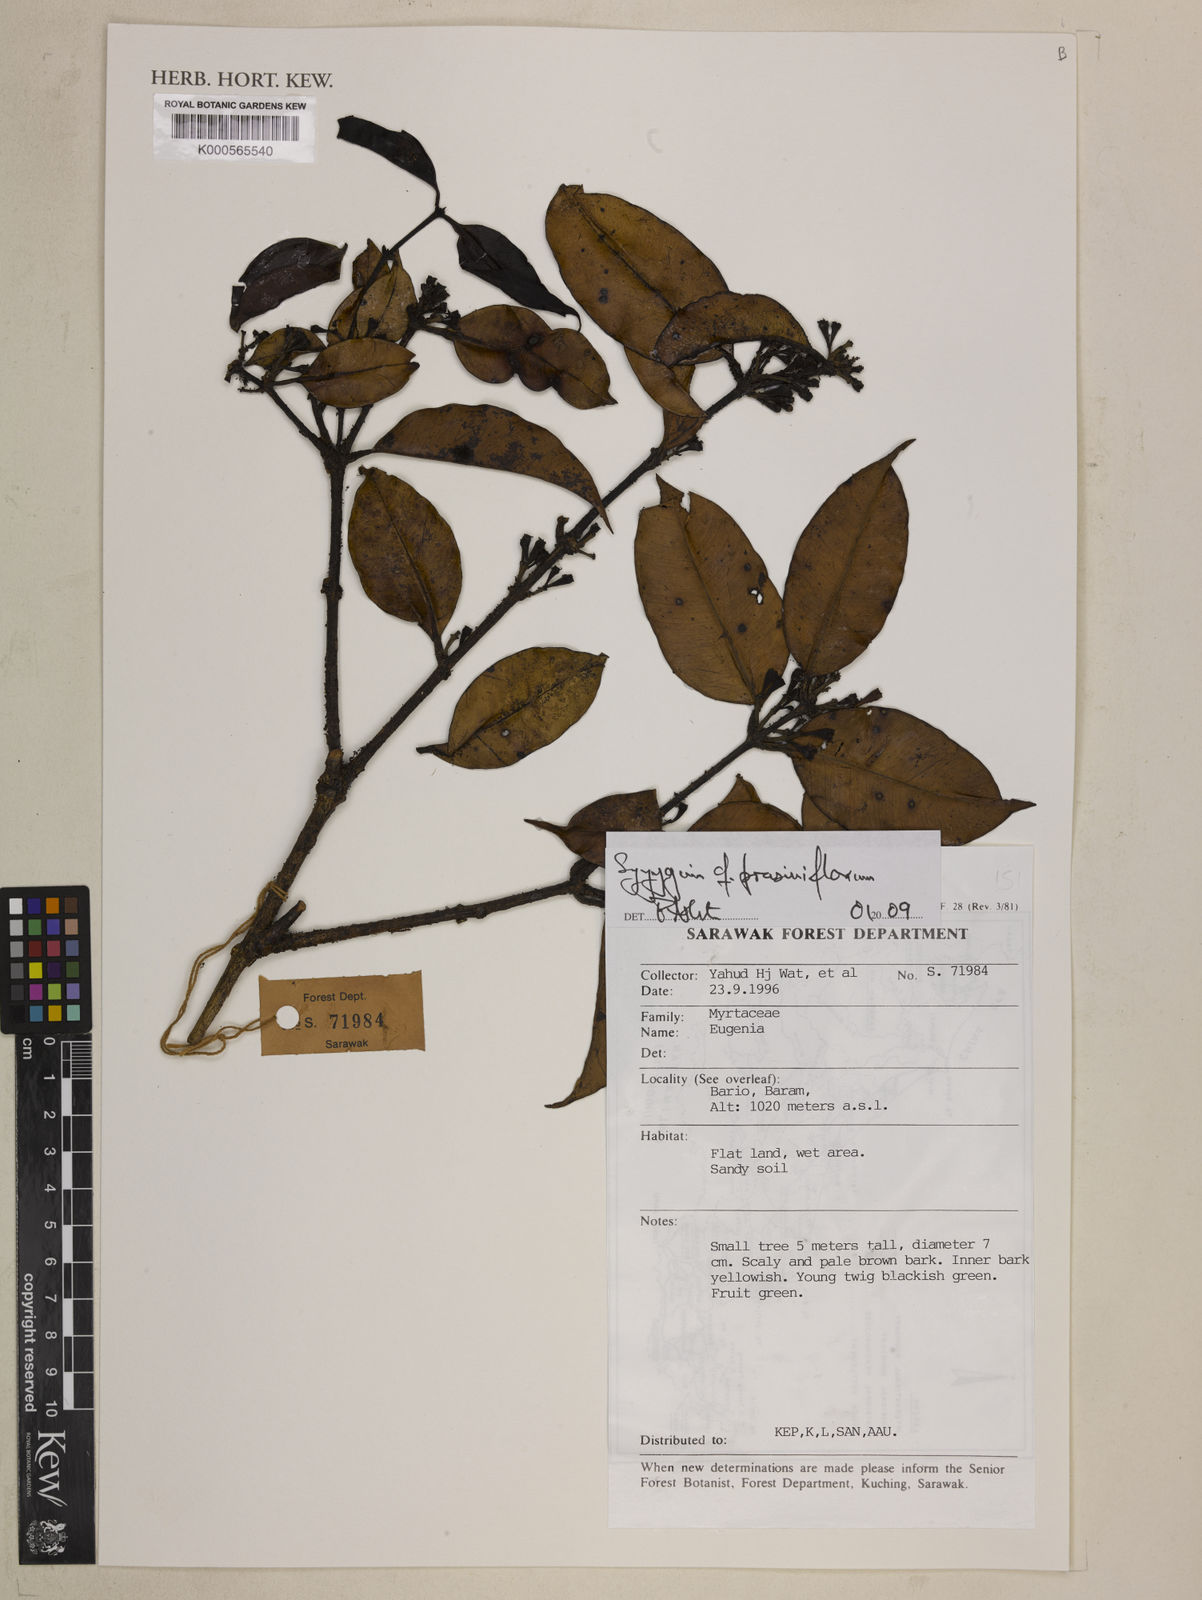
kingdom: Plantae
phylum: Tracheophyta
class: Magnoliopsida
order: Myrtales
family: Myrtaceae
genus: Syzygium
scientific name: Syzygium prasiniflorum
